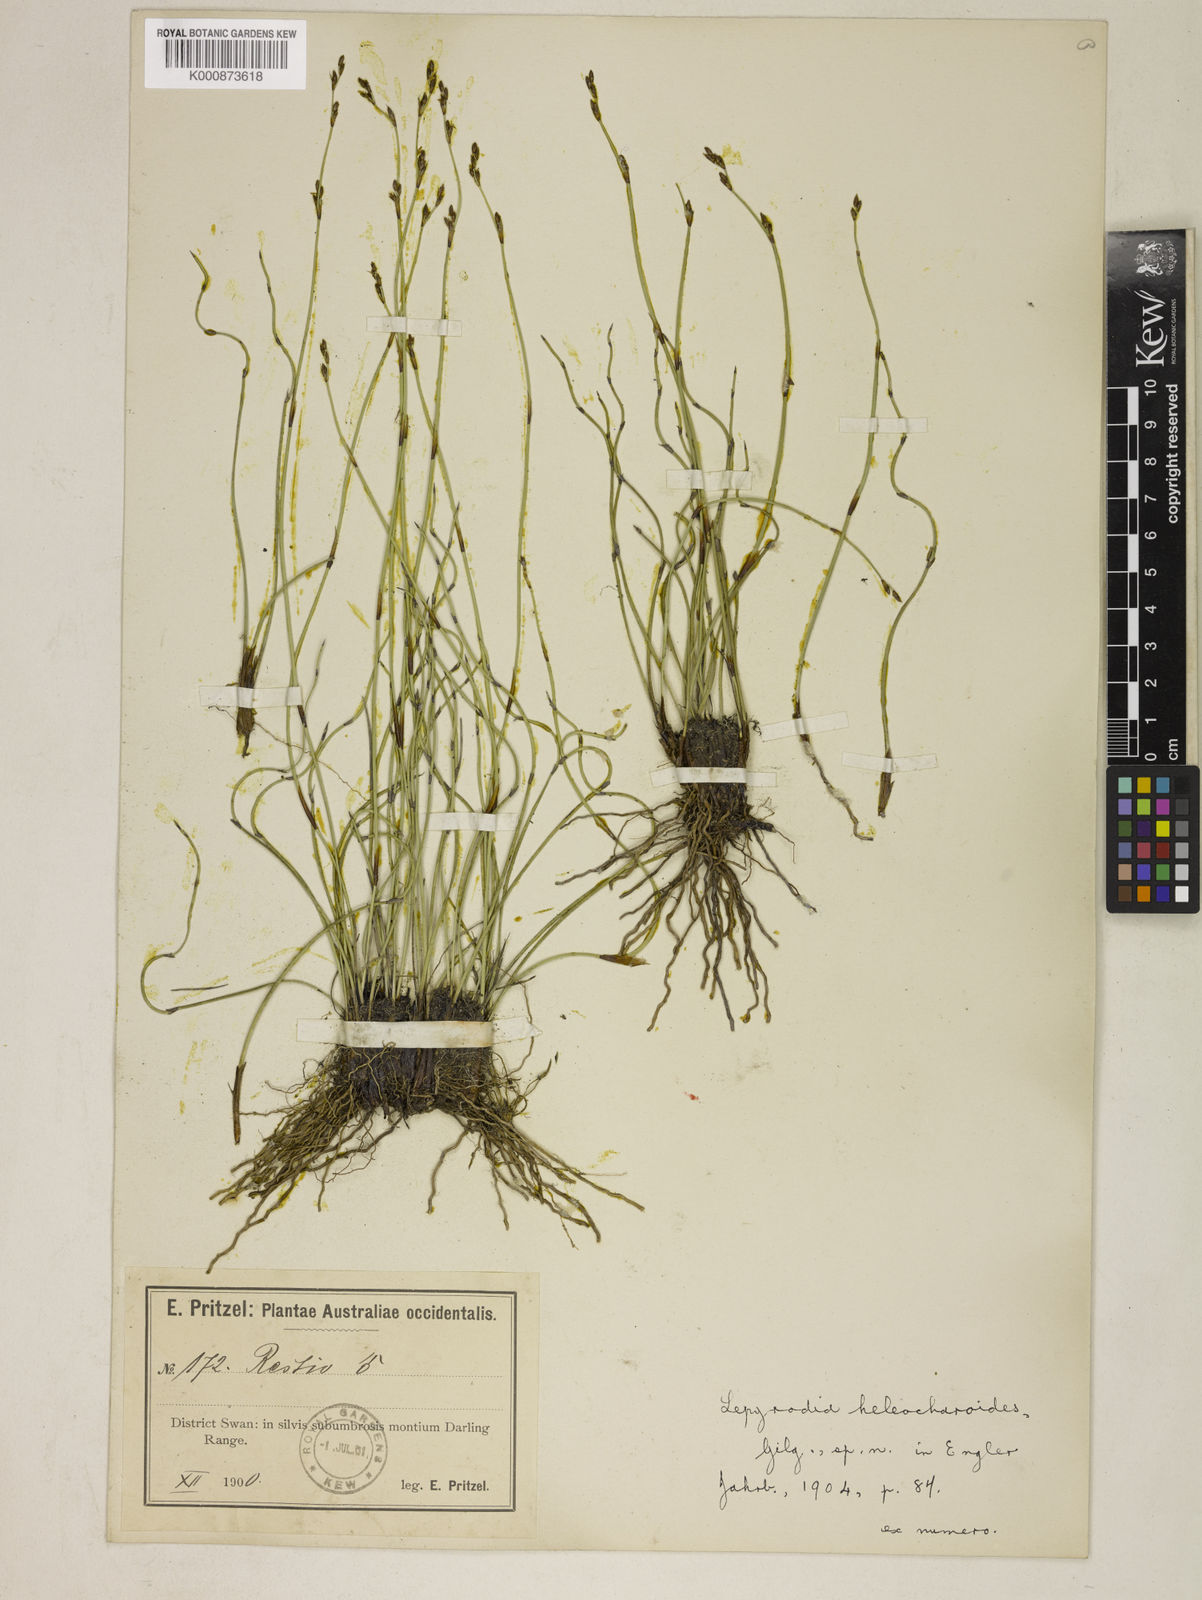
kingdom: Plantae
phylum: Tracheophyta
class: Liliopsida
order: Poales
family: Restionaceae
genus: Lepyrodia
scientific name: Lepyrodia heleocharoides
